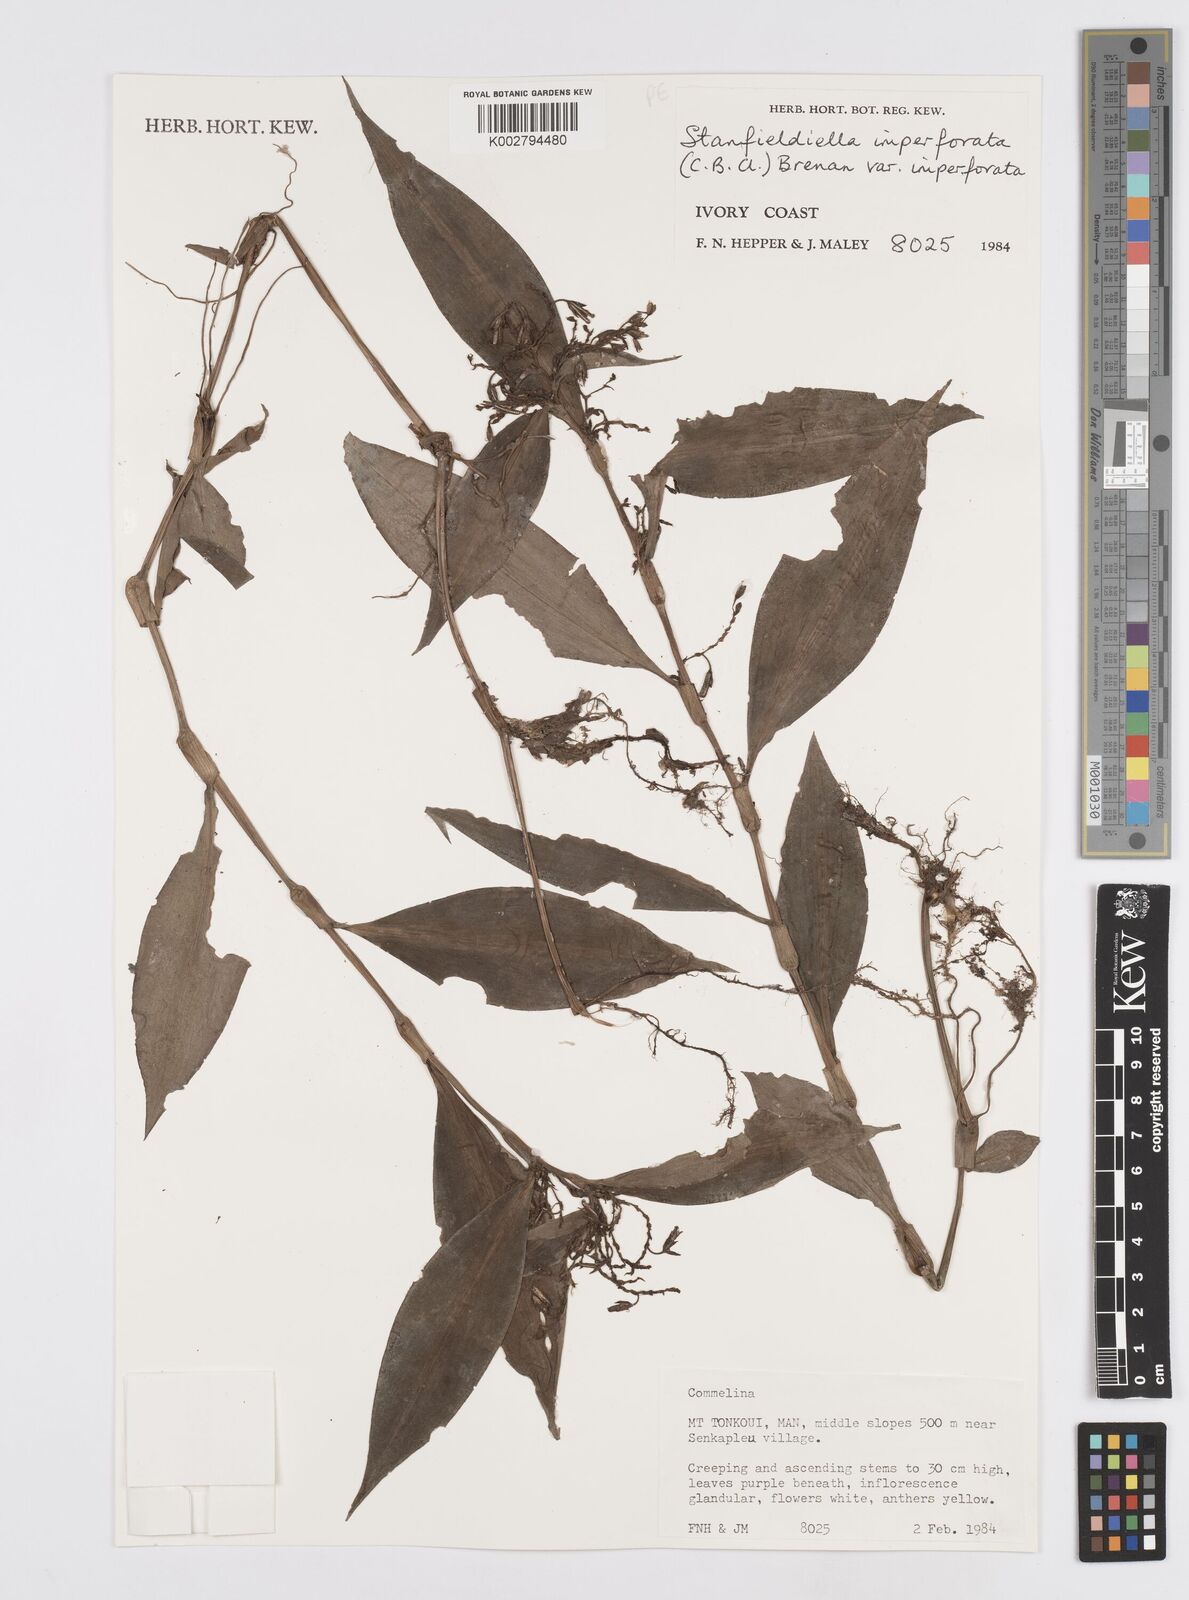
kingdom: Plantae
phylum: Tracheophyta
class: Liliopsida
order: Commelinales
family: Commelinaceae
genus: Stanfieldiella
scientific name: Stanfieldiella imperforata
